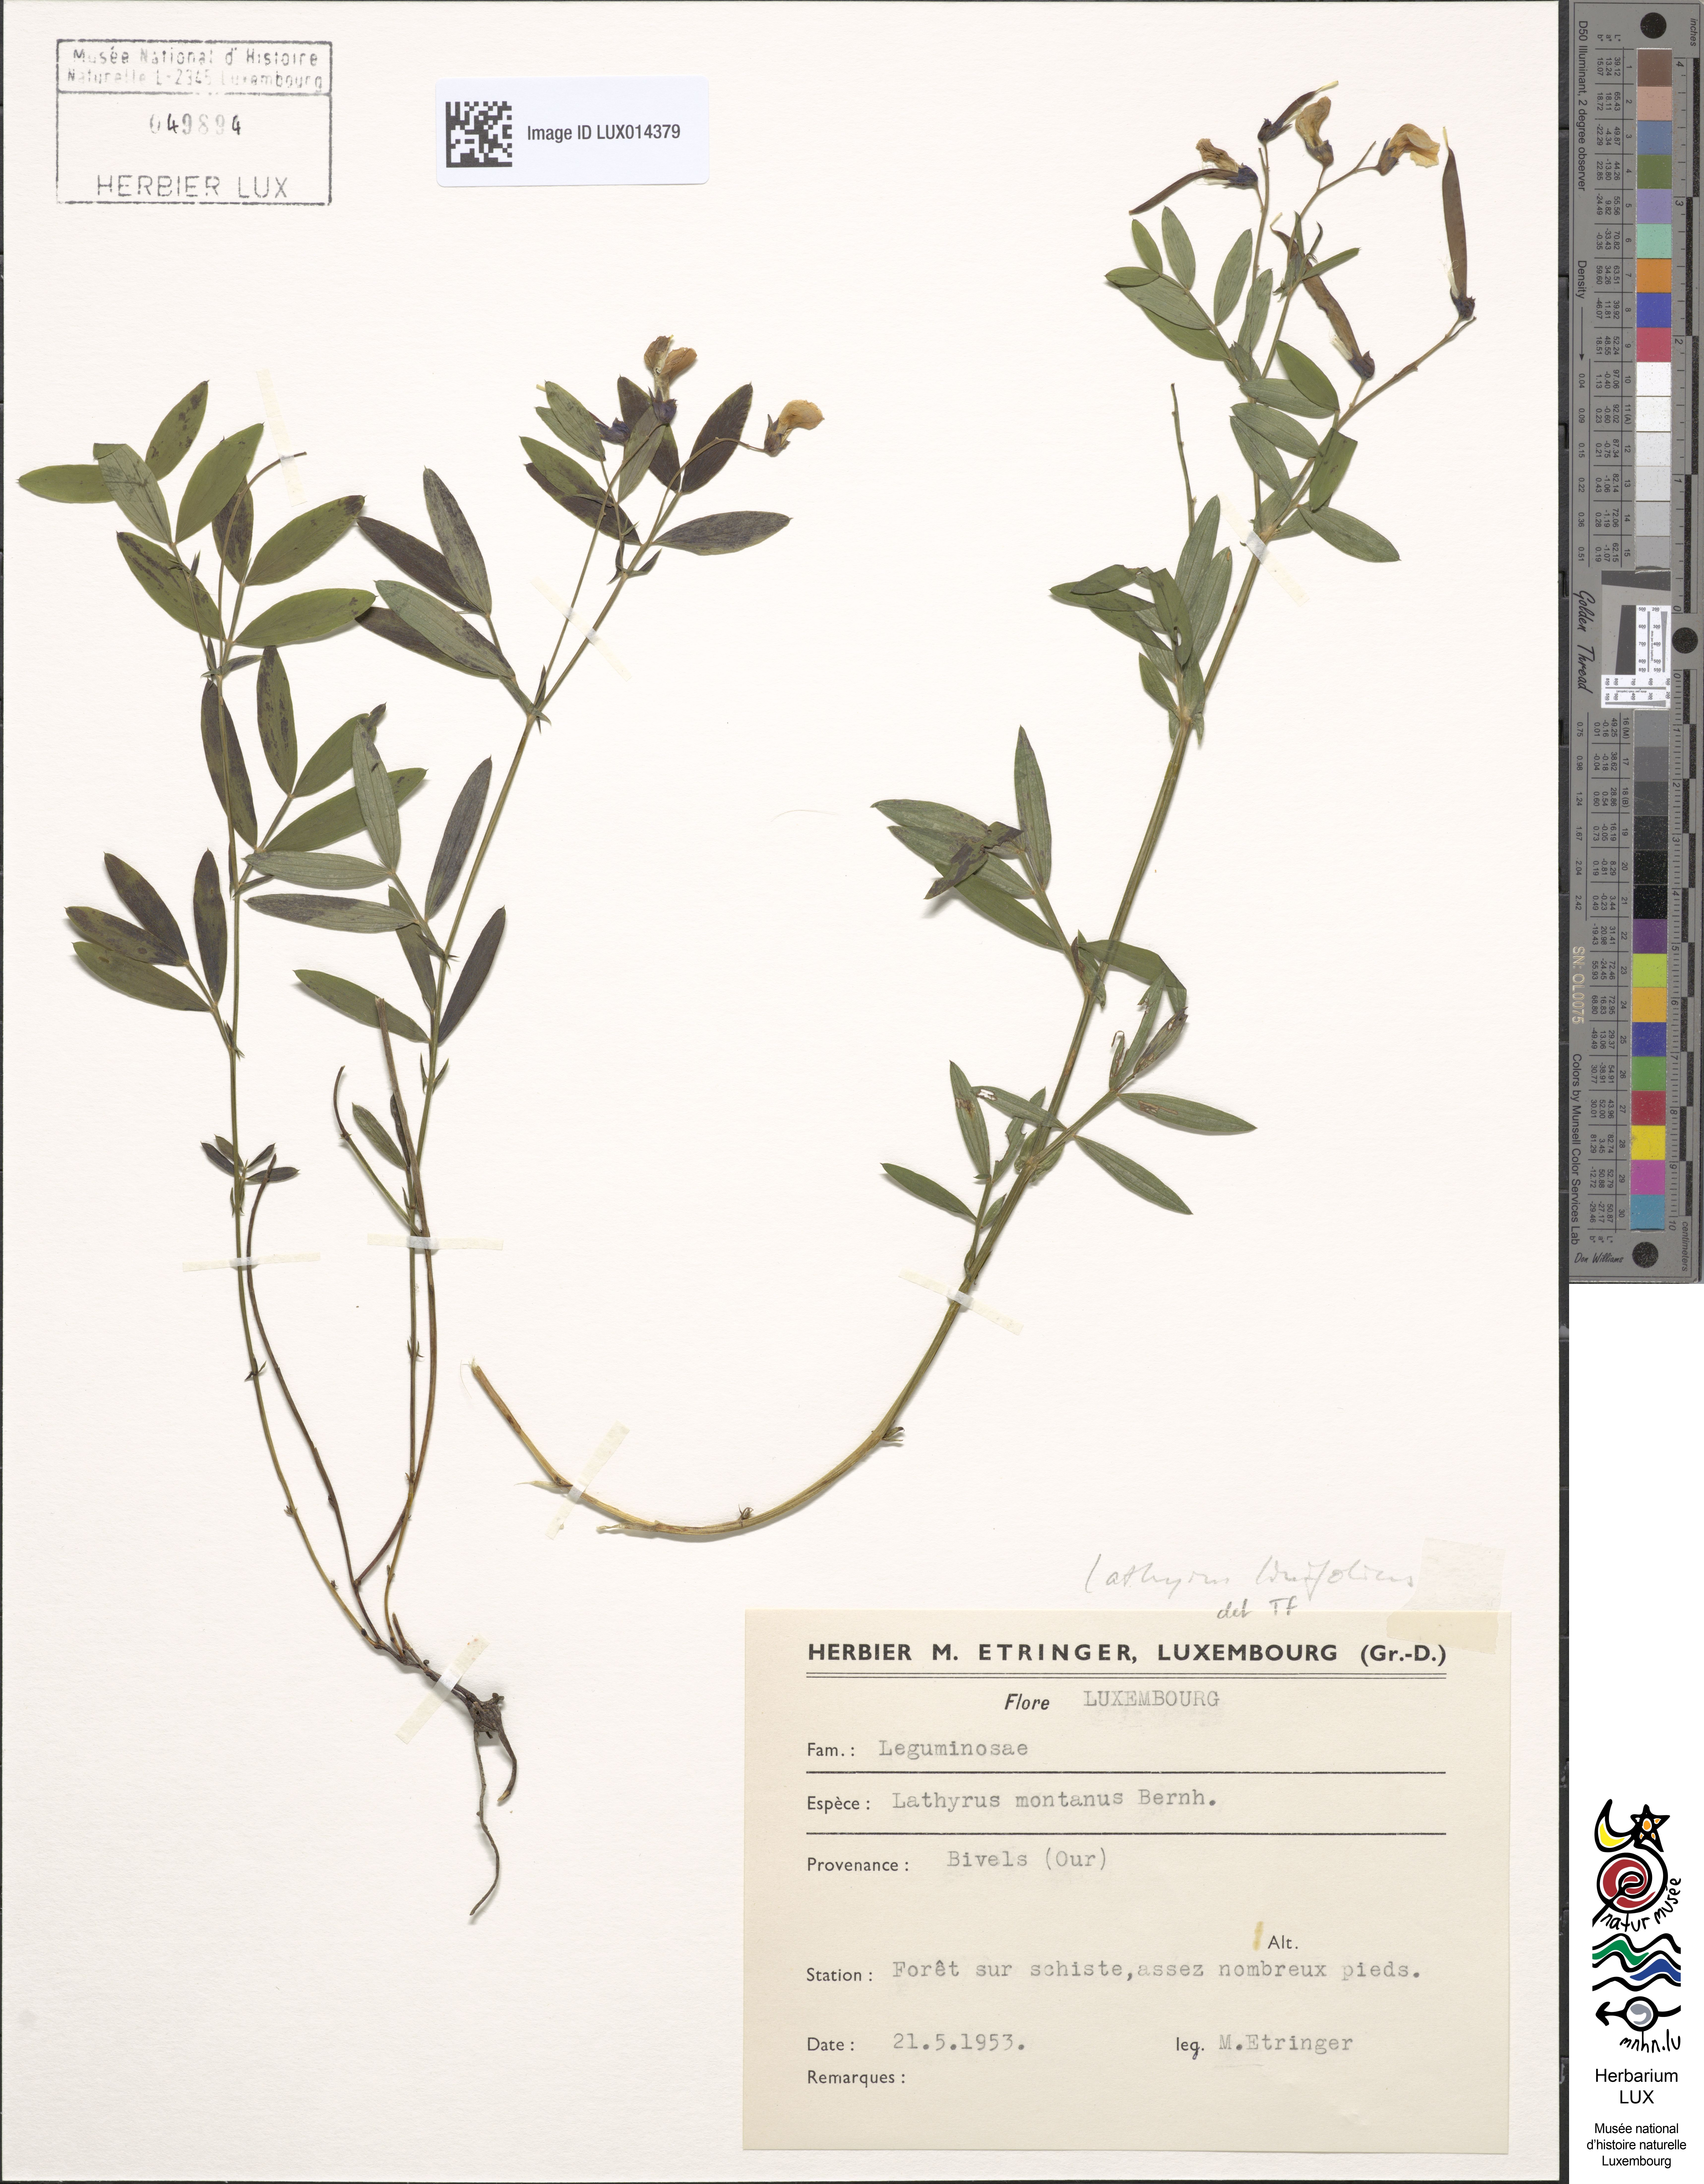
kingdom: Plantae
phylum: Tracheophyta
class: Magnoliopsida
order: Fabales
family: Fabaceae
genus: Lathyrus
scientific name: Lathyrus linifolius
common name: Bitter-vetch
